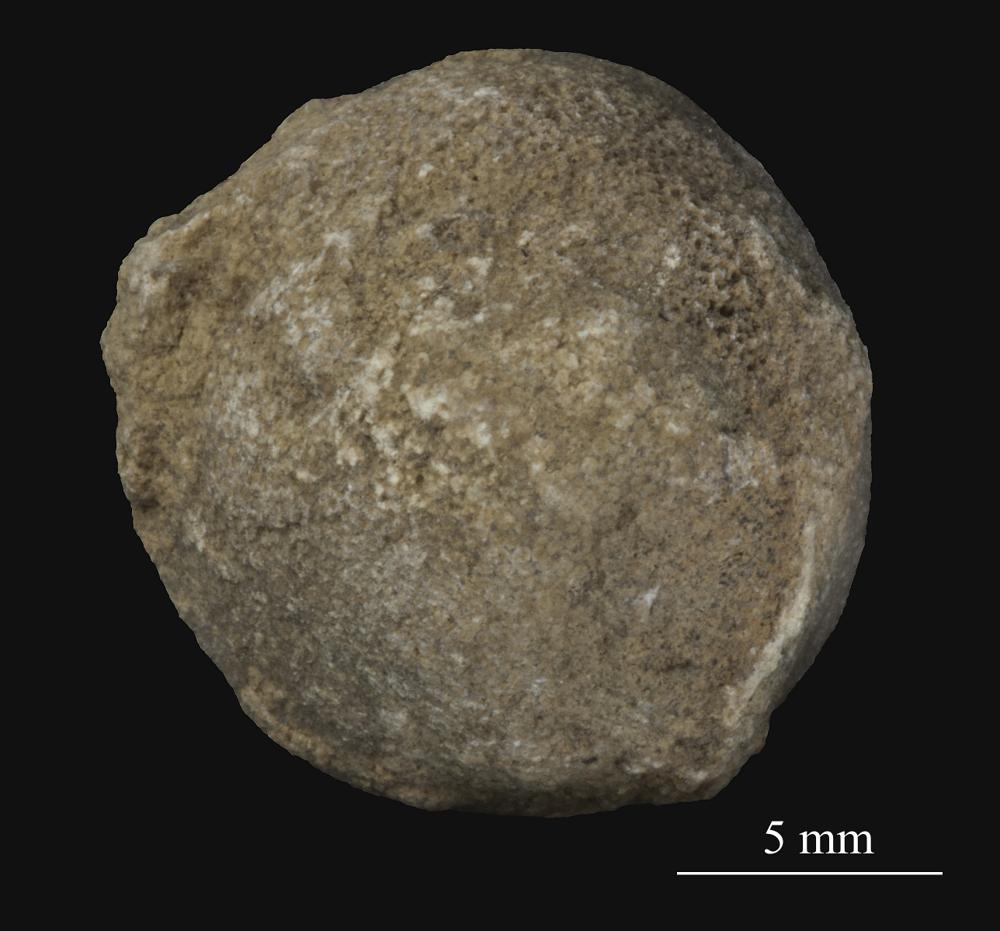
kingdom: Animalia
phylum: Bryozoa
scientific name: Bryozoa
